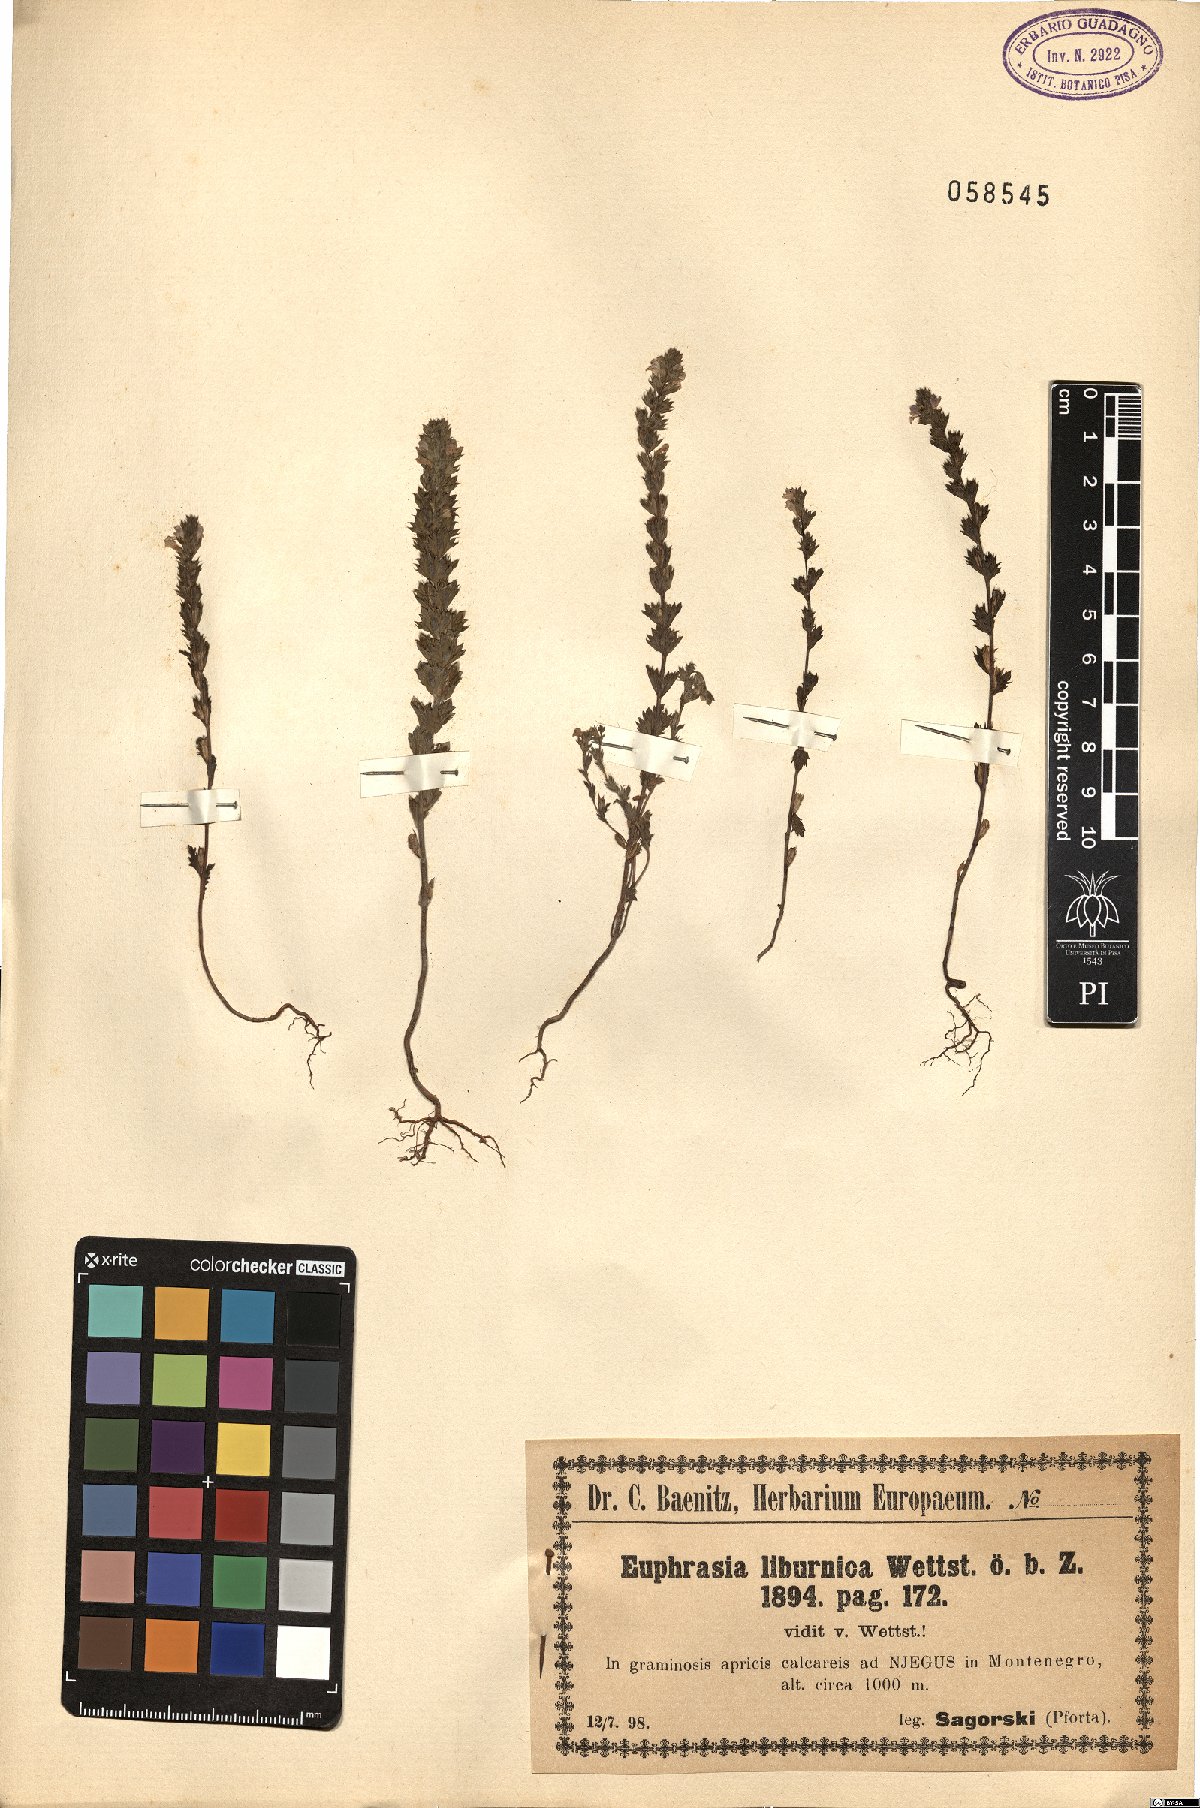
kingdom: Plantae
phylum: Tracheophyta
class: Magnoliopsida
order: Lamiales
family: Orobanchaceae
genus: Euphrasia
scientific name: Euphrasia liburnica
